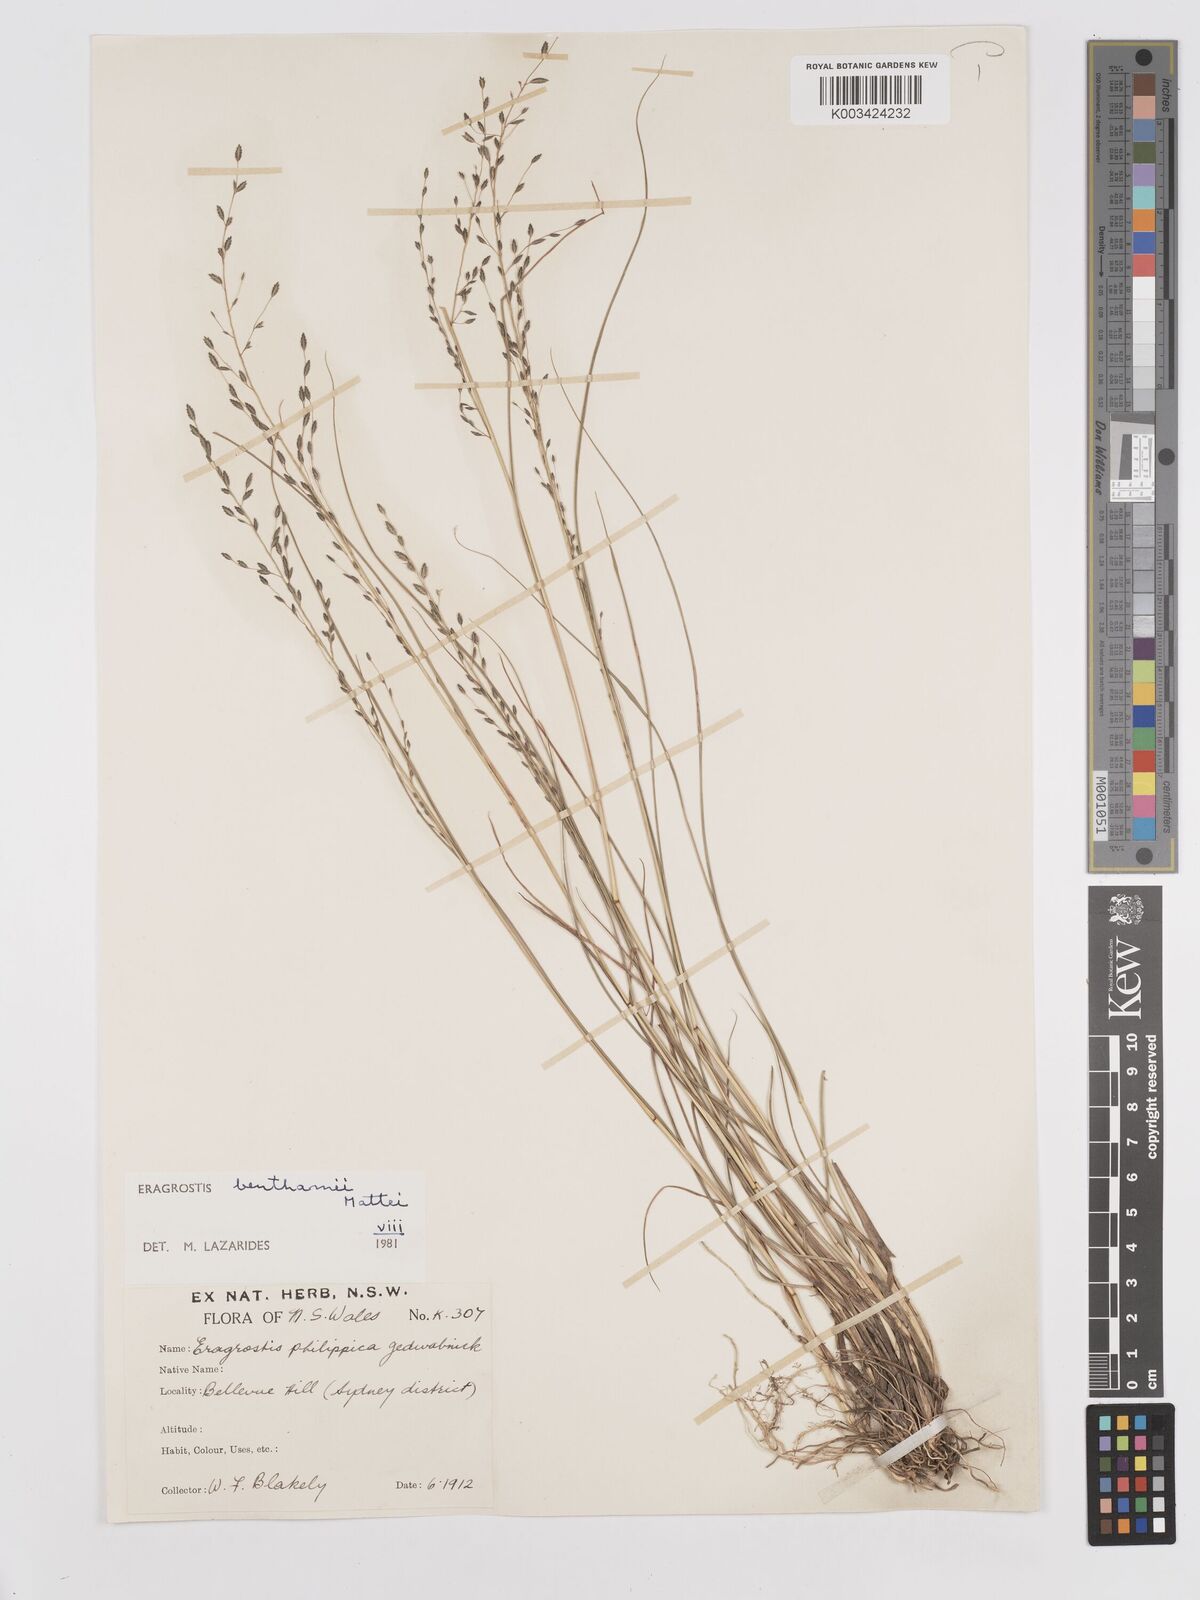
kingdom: Plantae
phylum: Tracheophyta
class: Liliopsida
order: Poales
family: Poaceae
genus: Eragrostis
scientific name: Eragrostis brownii
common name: Lovegrass
